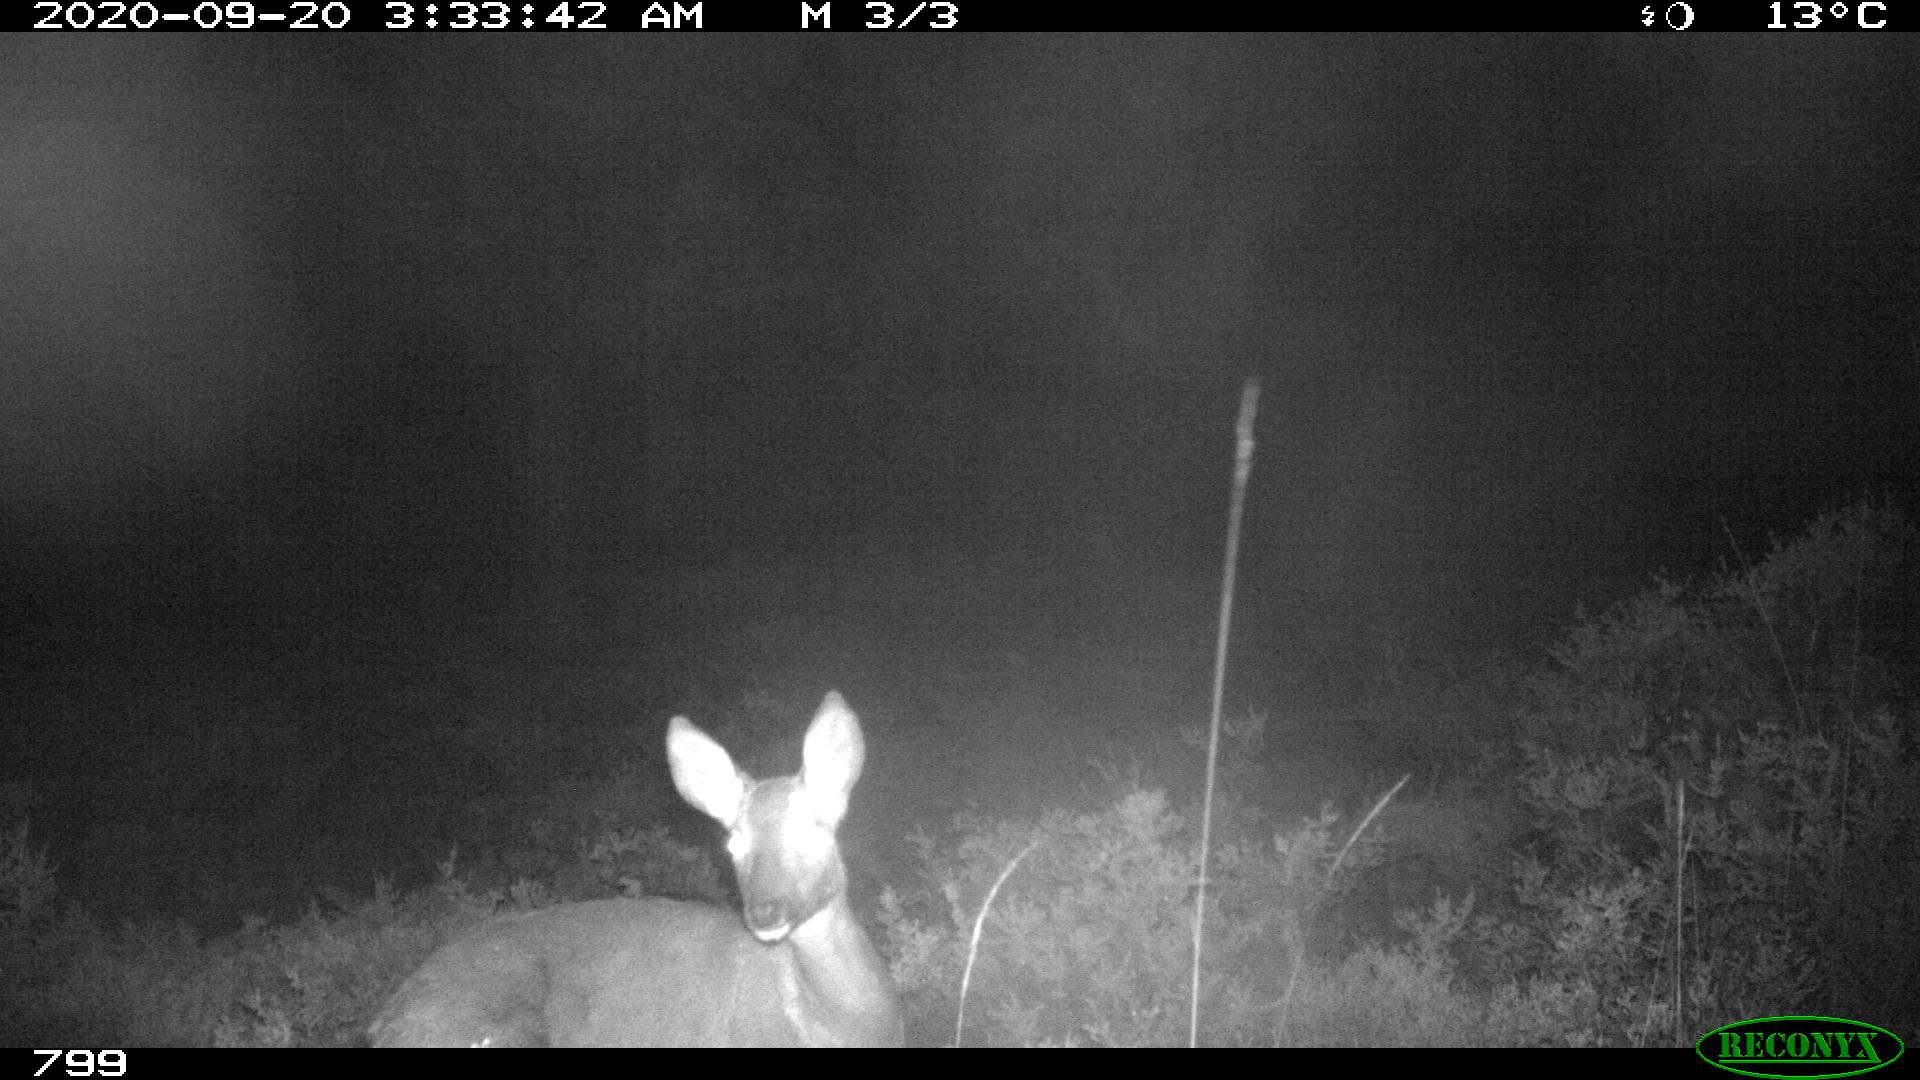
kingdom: Animalia
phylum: Chordata
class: Mammalia
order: Artiodactyla
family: Cervidae
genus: Capreolus
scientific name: Capreolus capreolus
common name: Western roe deer
